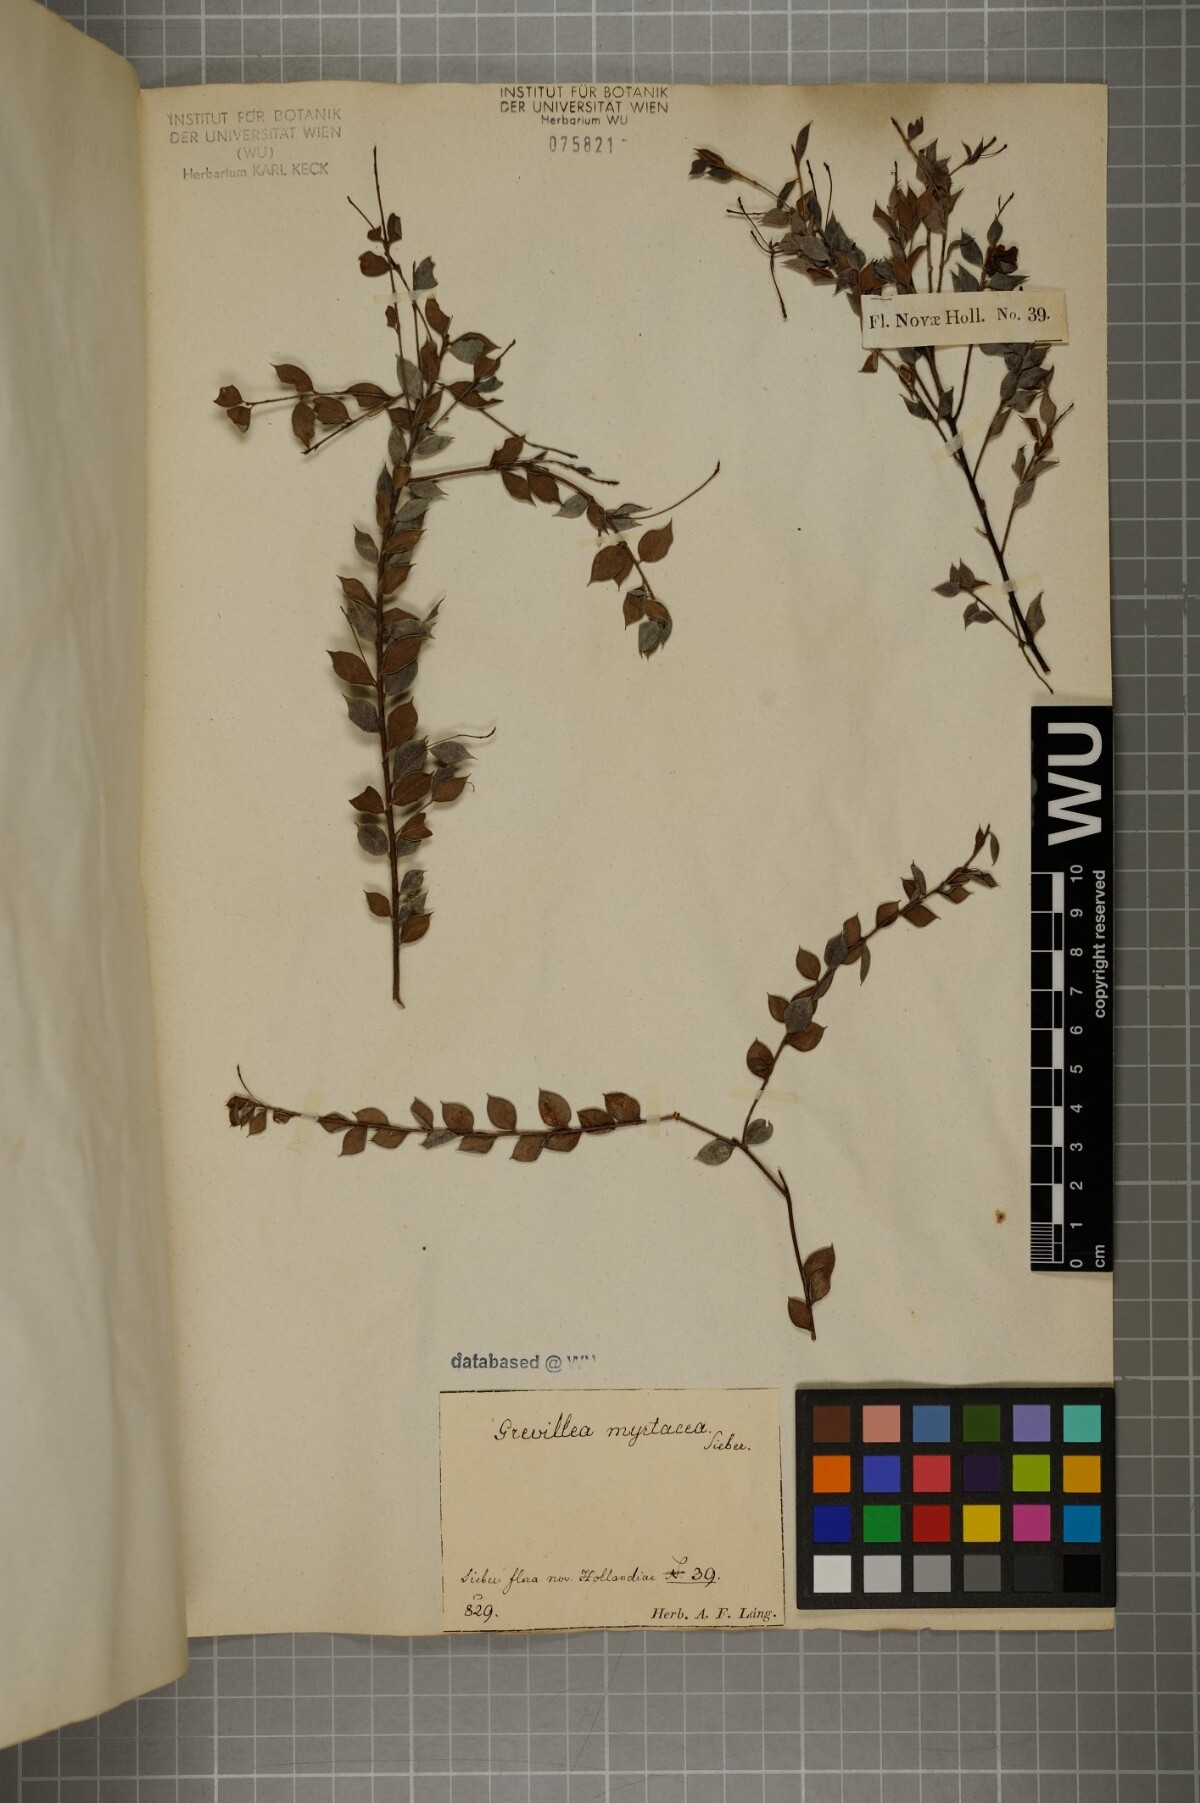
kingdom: Plantae
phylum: Tracheophyta
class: Magnoliopsida
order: Proteales
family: Proteaceae
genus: Grevillea
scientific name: Grevillea mucronulata
